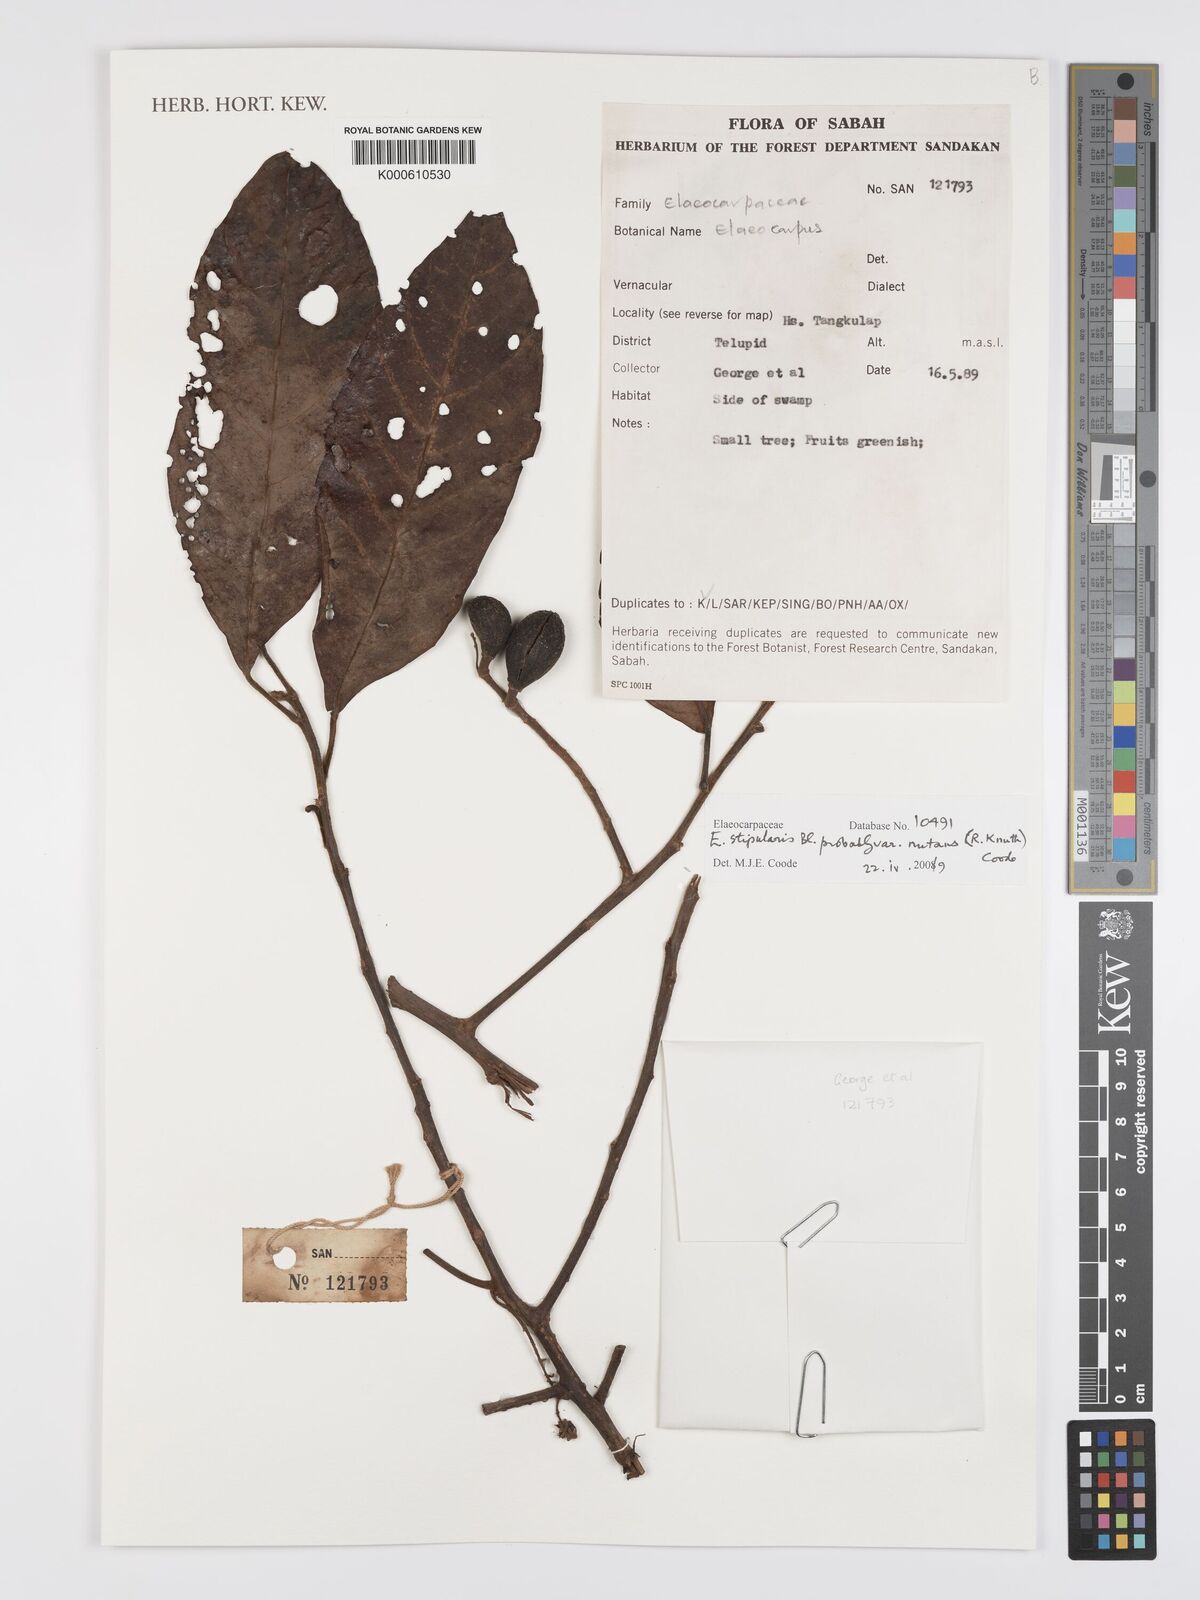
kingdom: Plantae
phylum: Tracheophyta
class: Magnoliopsida
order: Oxalidales
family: Elaeocarpaceae
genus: Elaeocarpus
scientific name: Elaeocarpus stipularis
